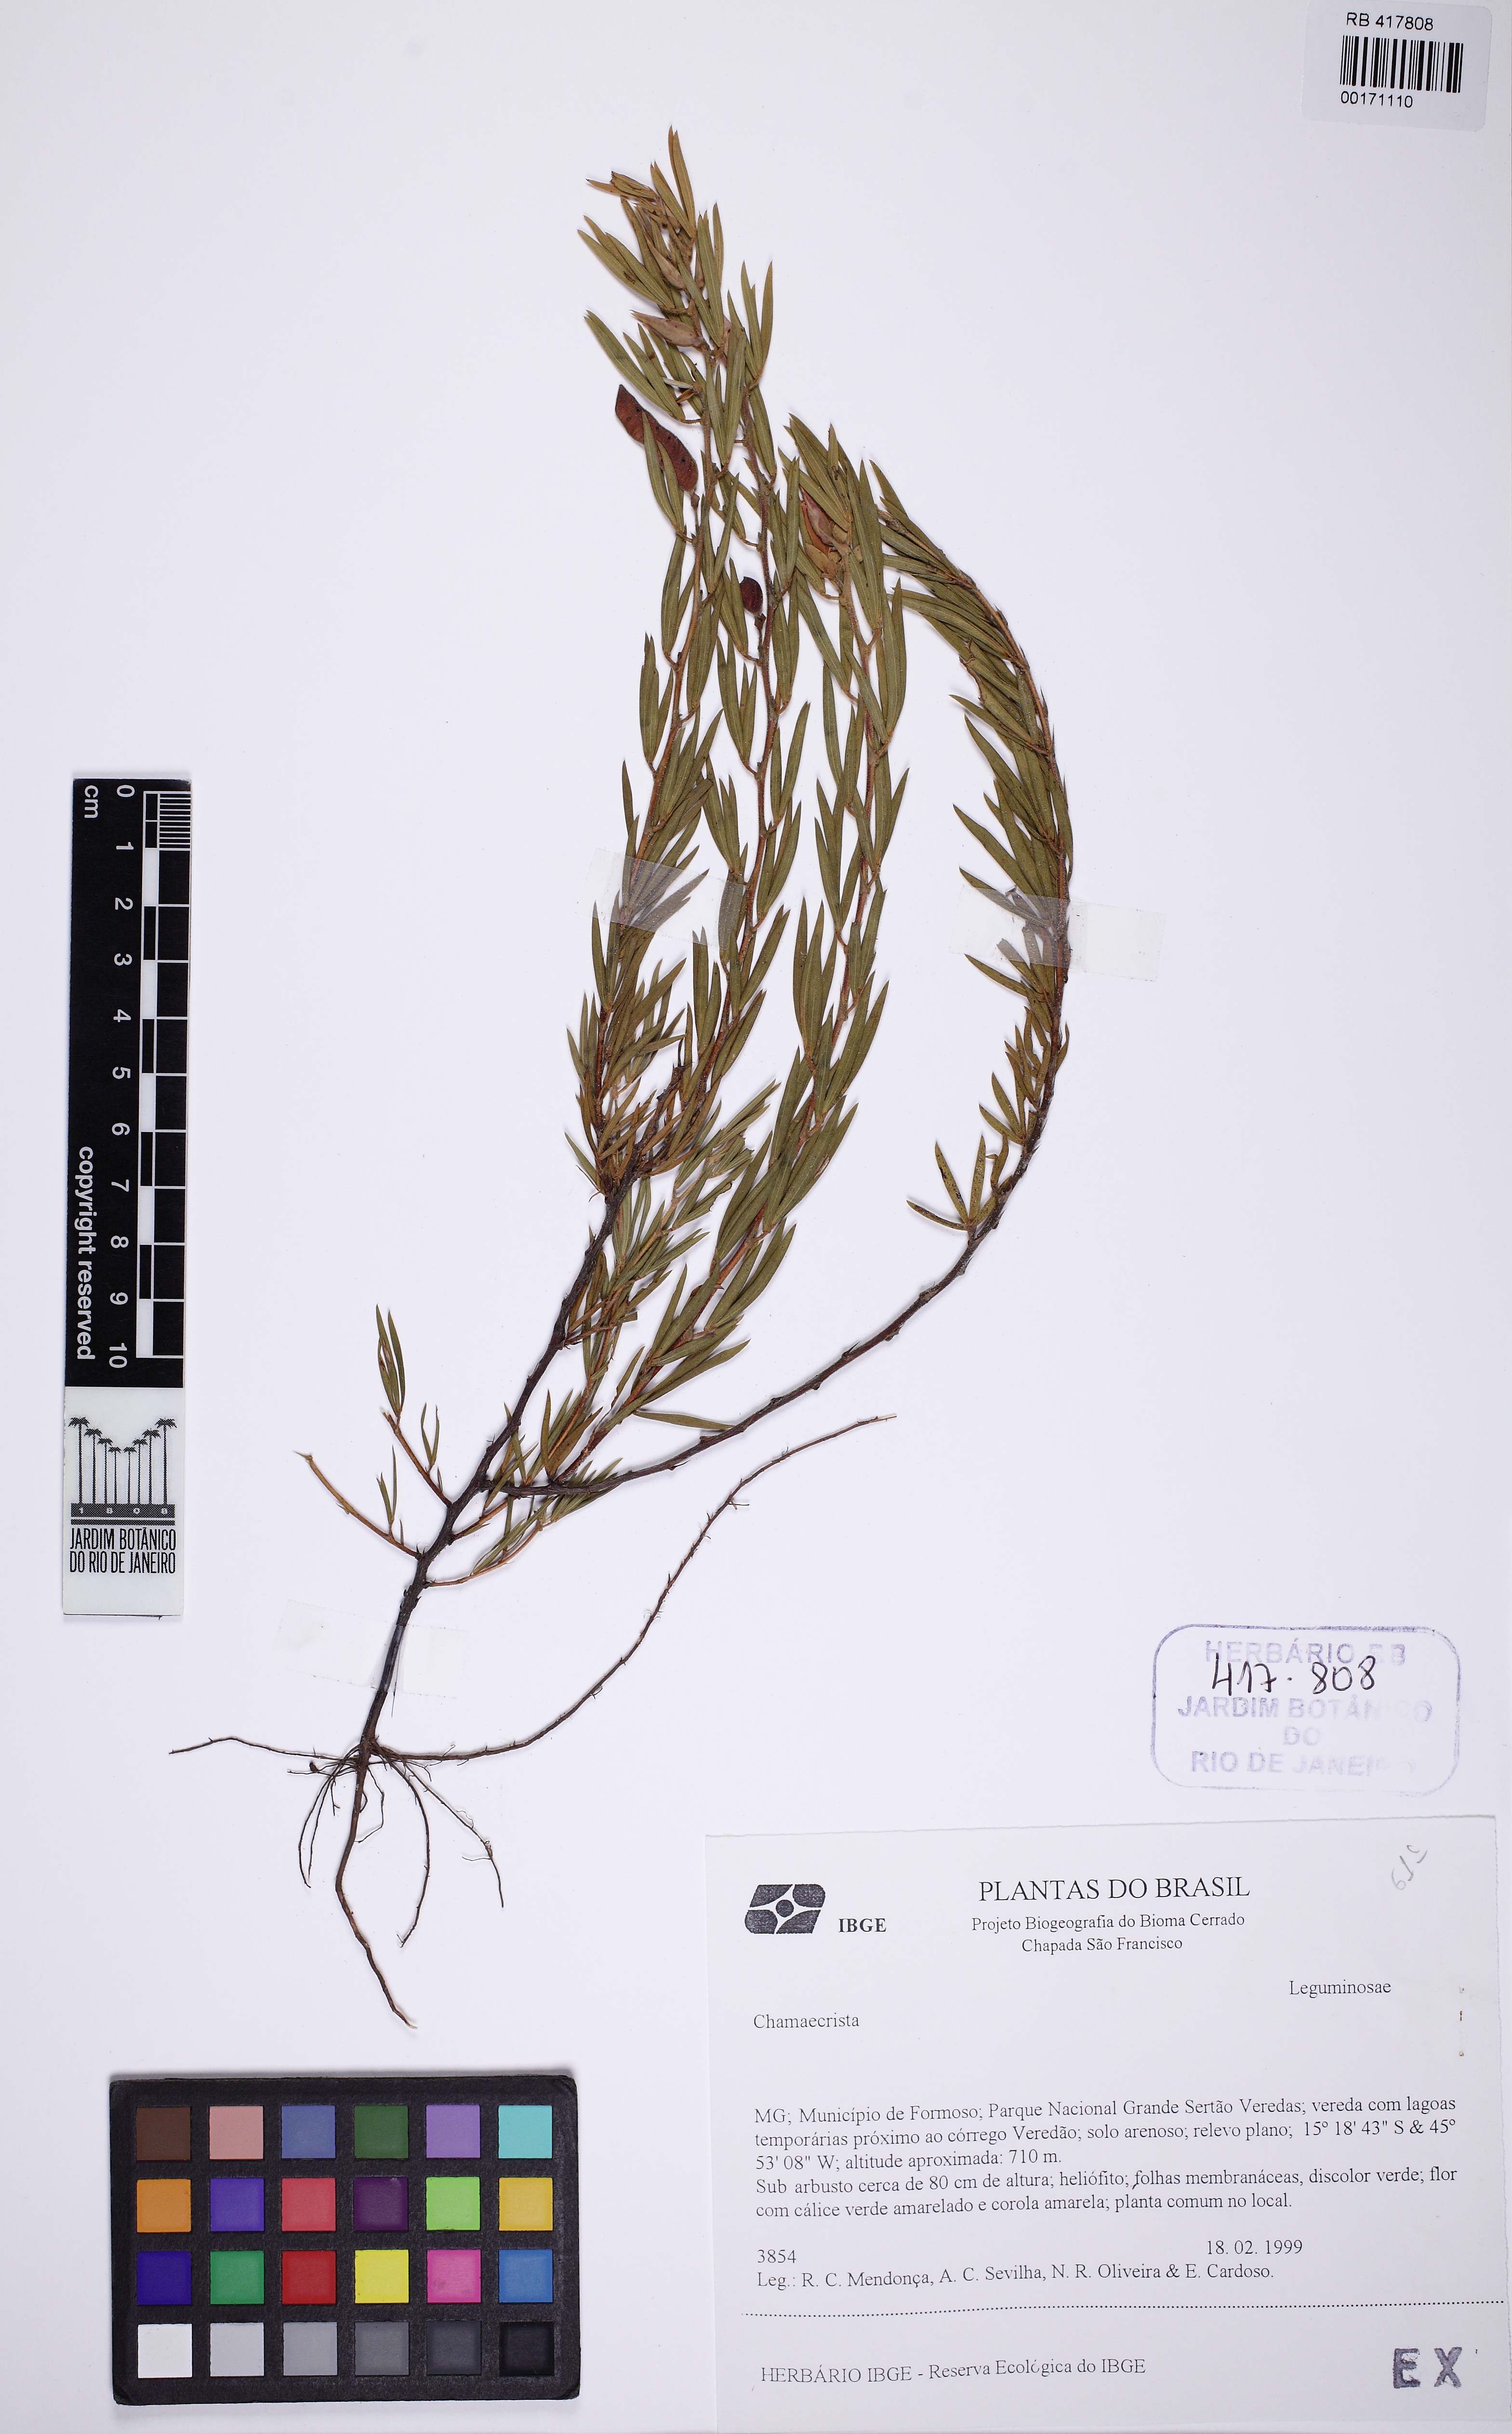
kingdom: Plantae
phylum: Tracheophyta
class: Magnoliopsida
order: Fabales
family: Fabaceae
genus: Chamaecrista
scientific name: Chamaecrista
